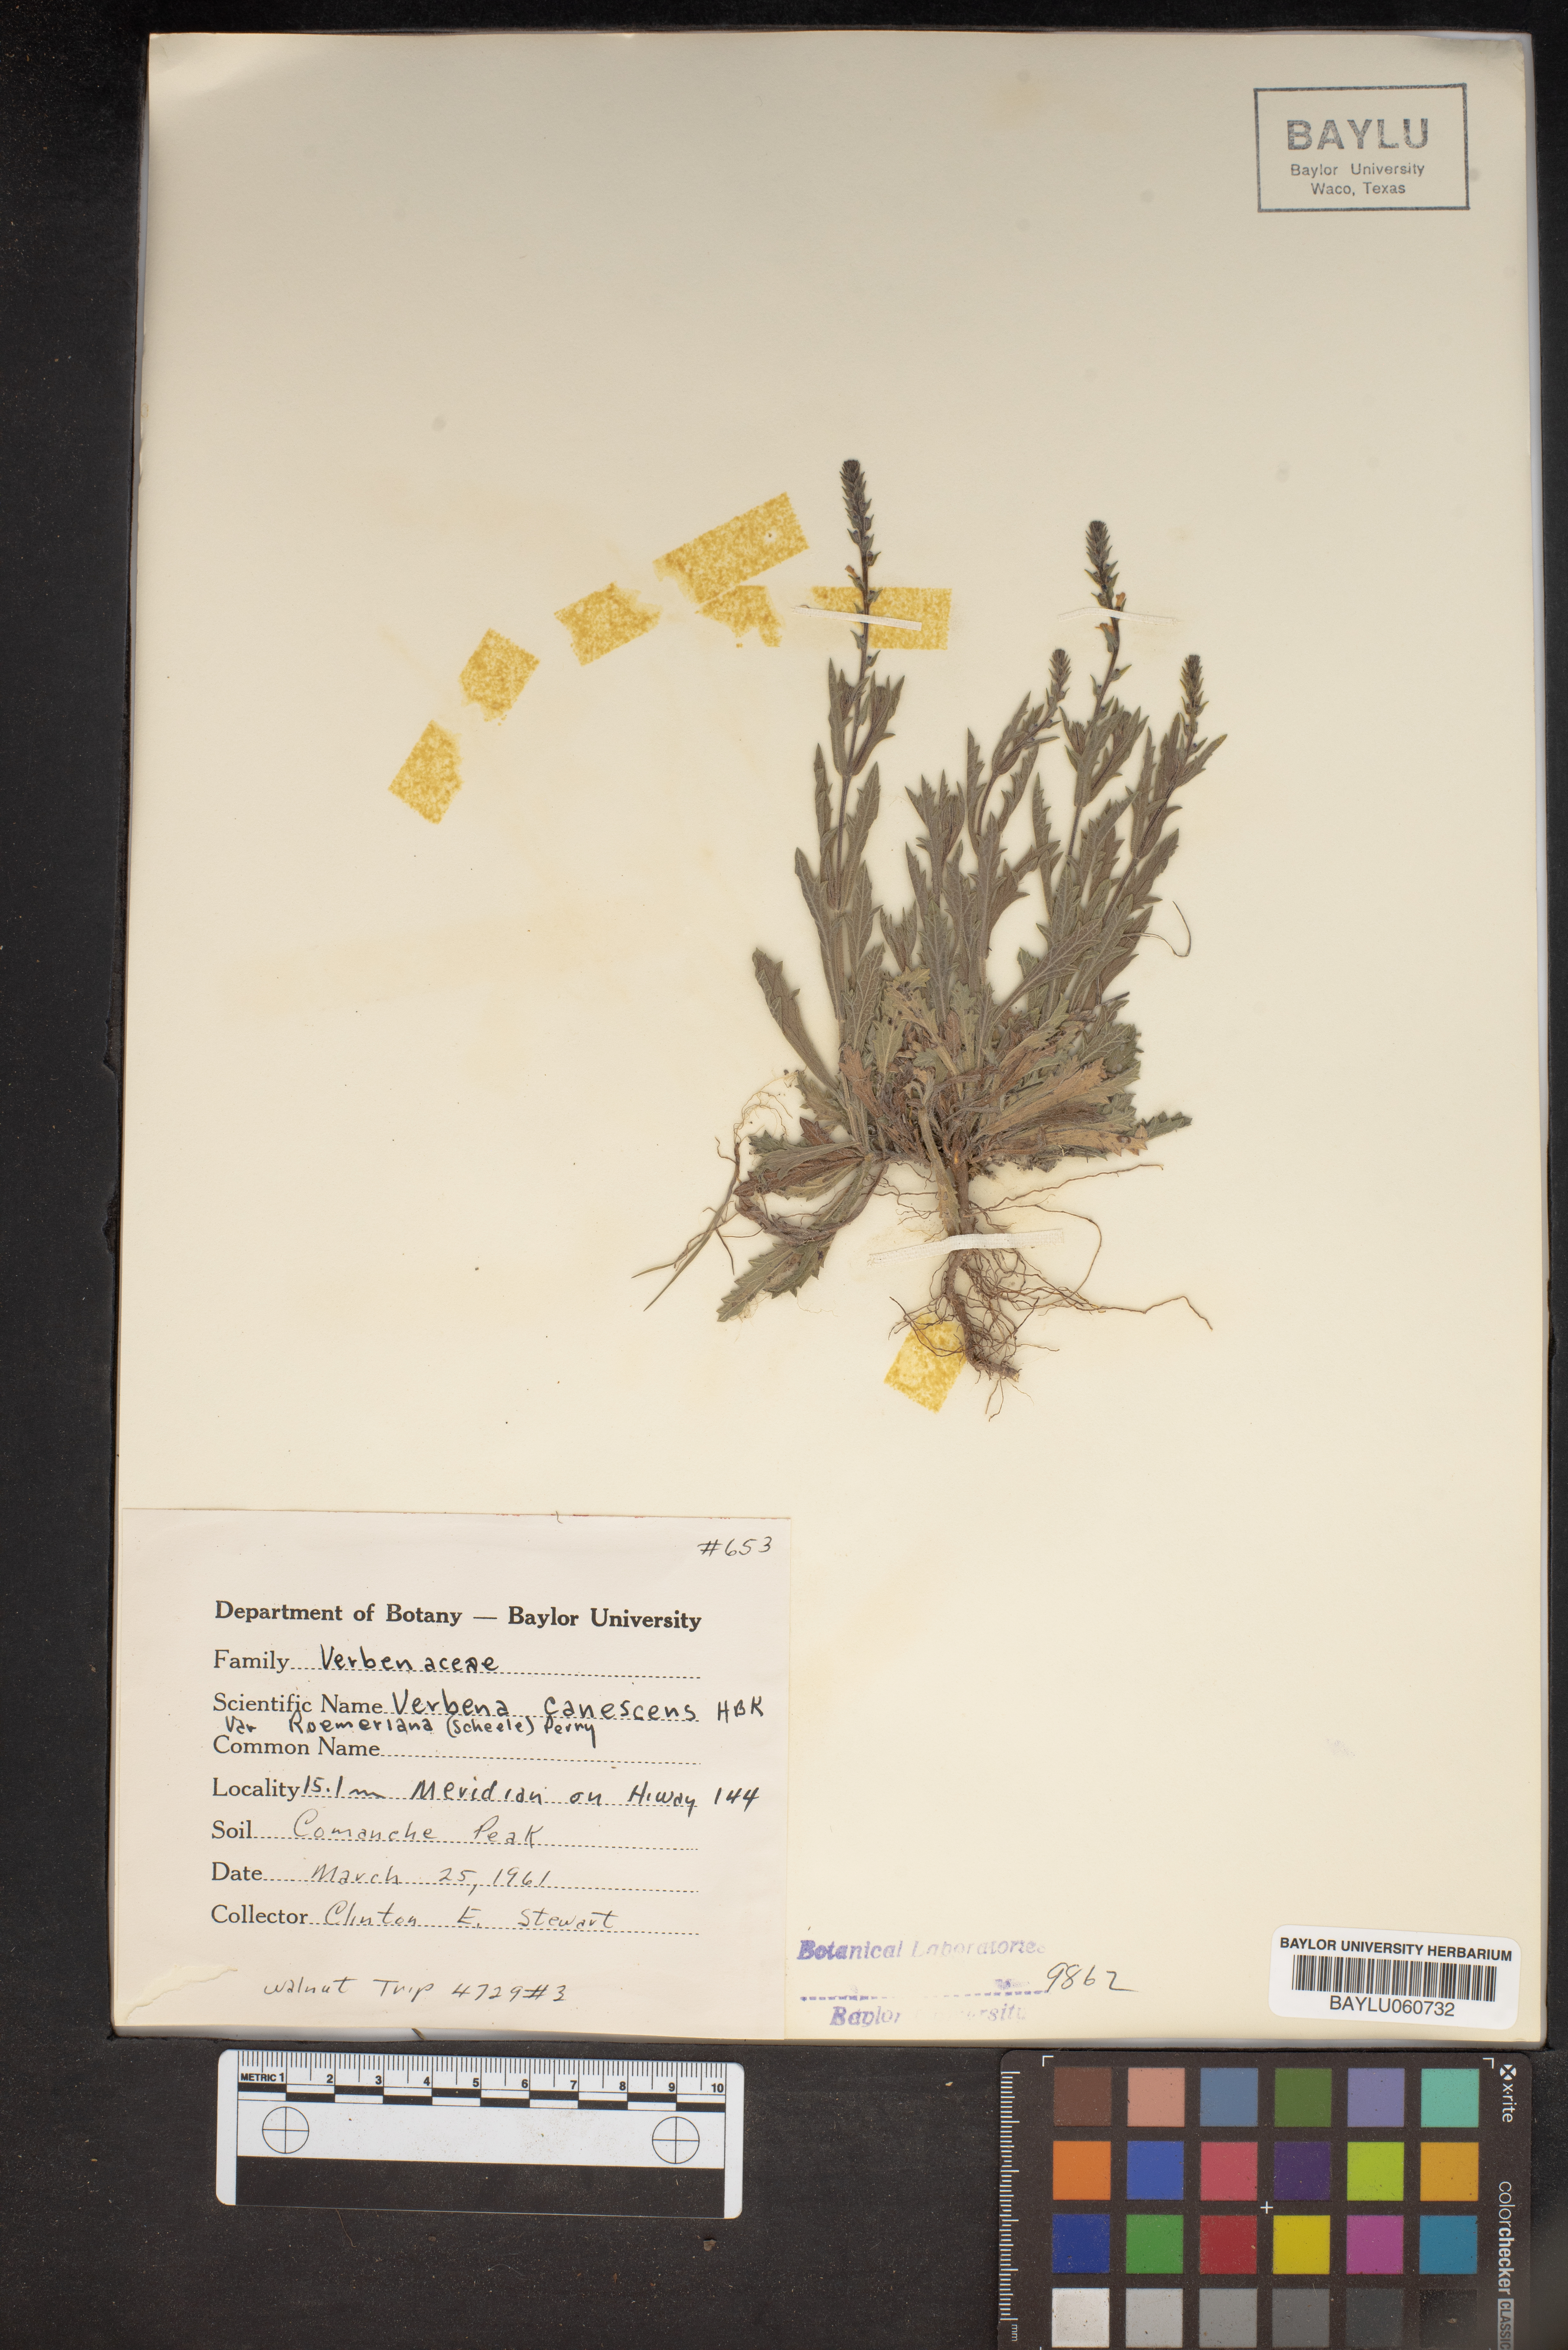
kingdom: Plantae
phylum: Tracheophyta
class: Magnoliopsida
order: Lamiales
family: Verbenaceae
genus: Verbena
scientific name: Verbena canescens
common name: Gray vervain
